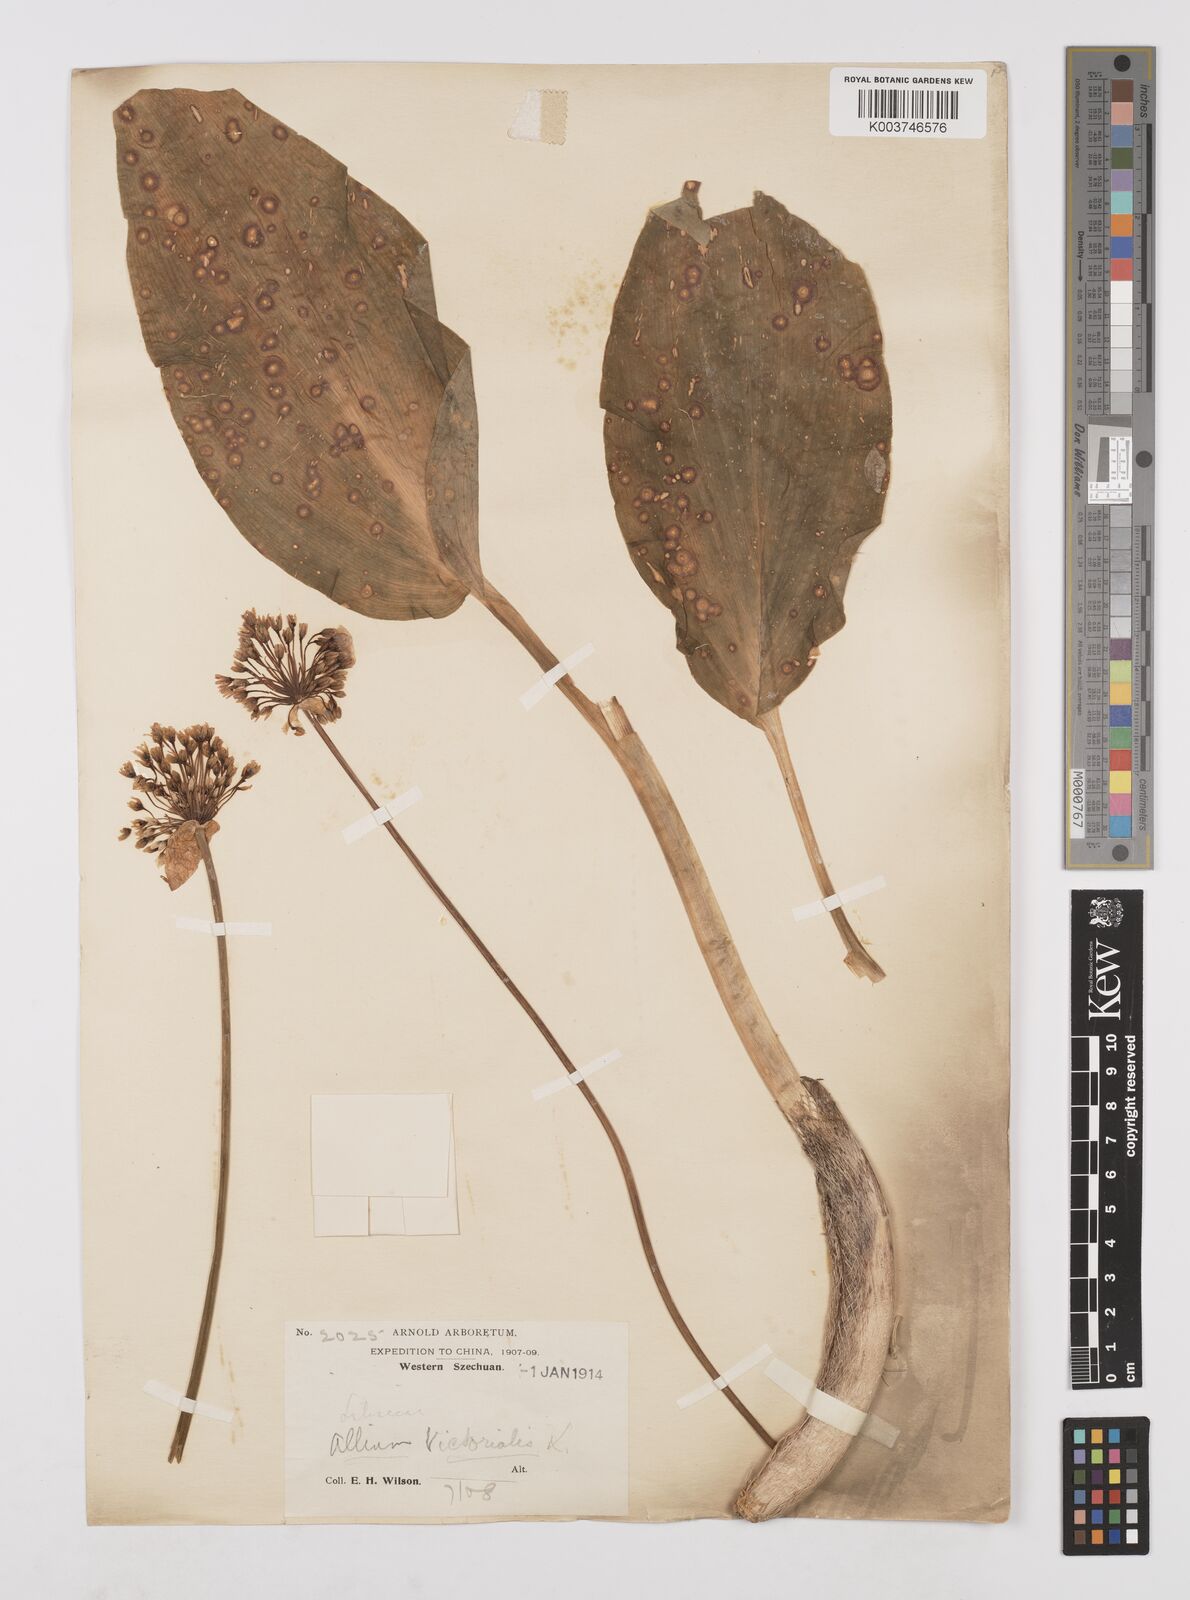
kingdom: Plantae
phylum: Tracheophyta
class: Liliopsida
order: Asparagales
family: Amaryllidaceae
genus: Allium
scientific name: Allium victorialis
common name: Alpine leek
